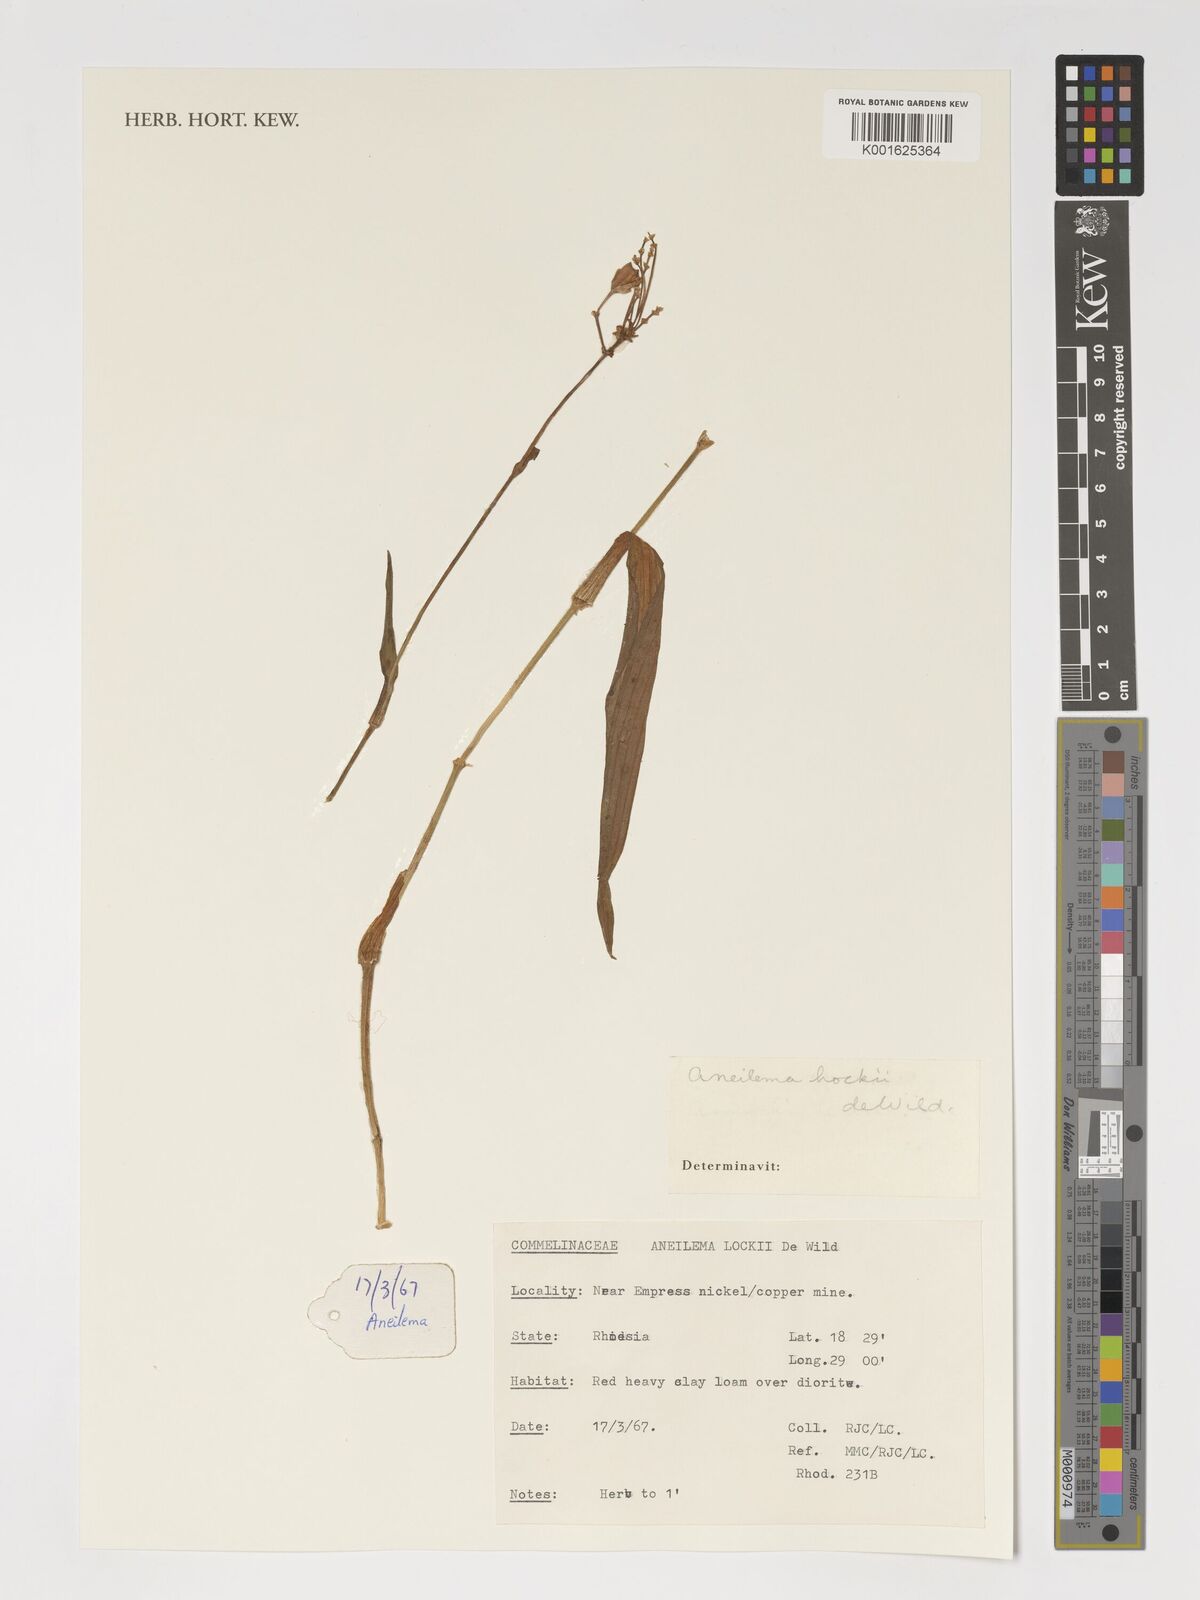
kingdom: Plantae
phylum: Tracheophyta
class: Liliopsida
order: Commelinales
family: Commelinaceae
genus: Aneilema
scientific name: Aneilema hockii
